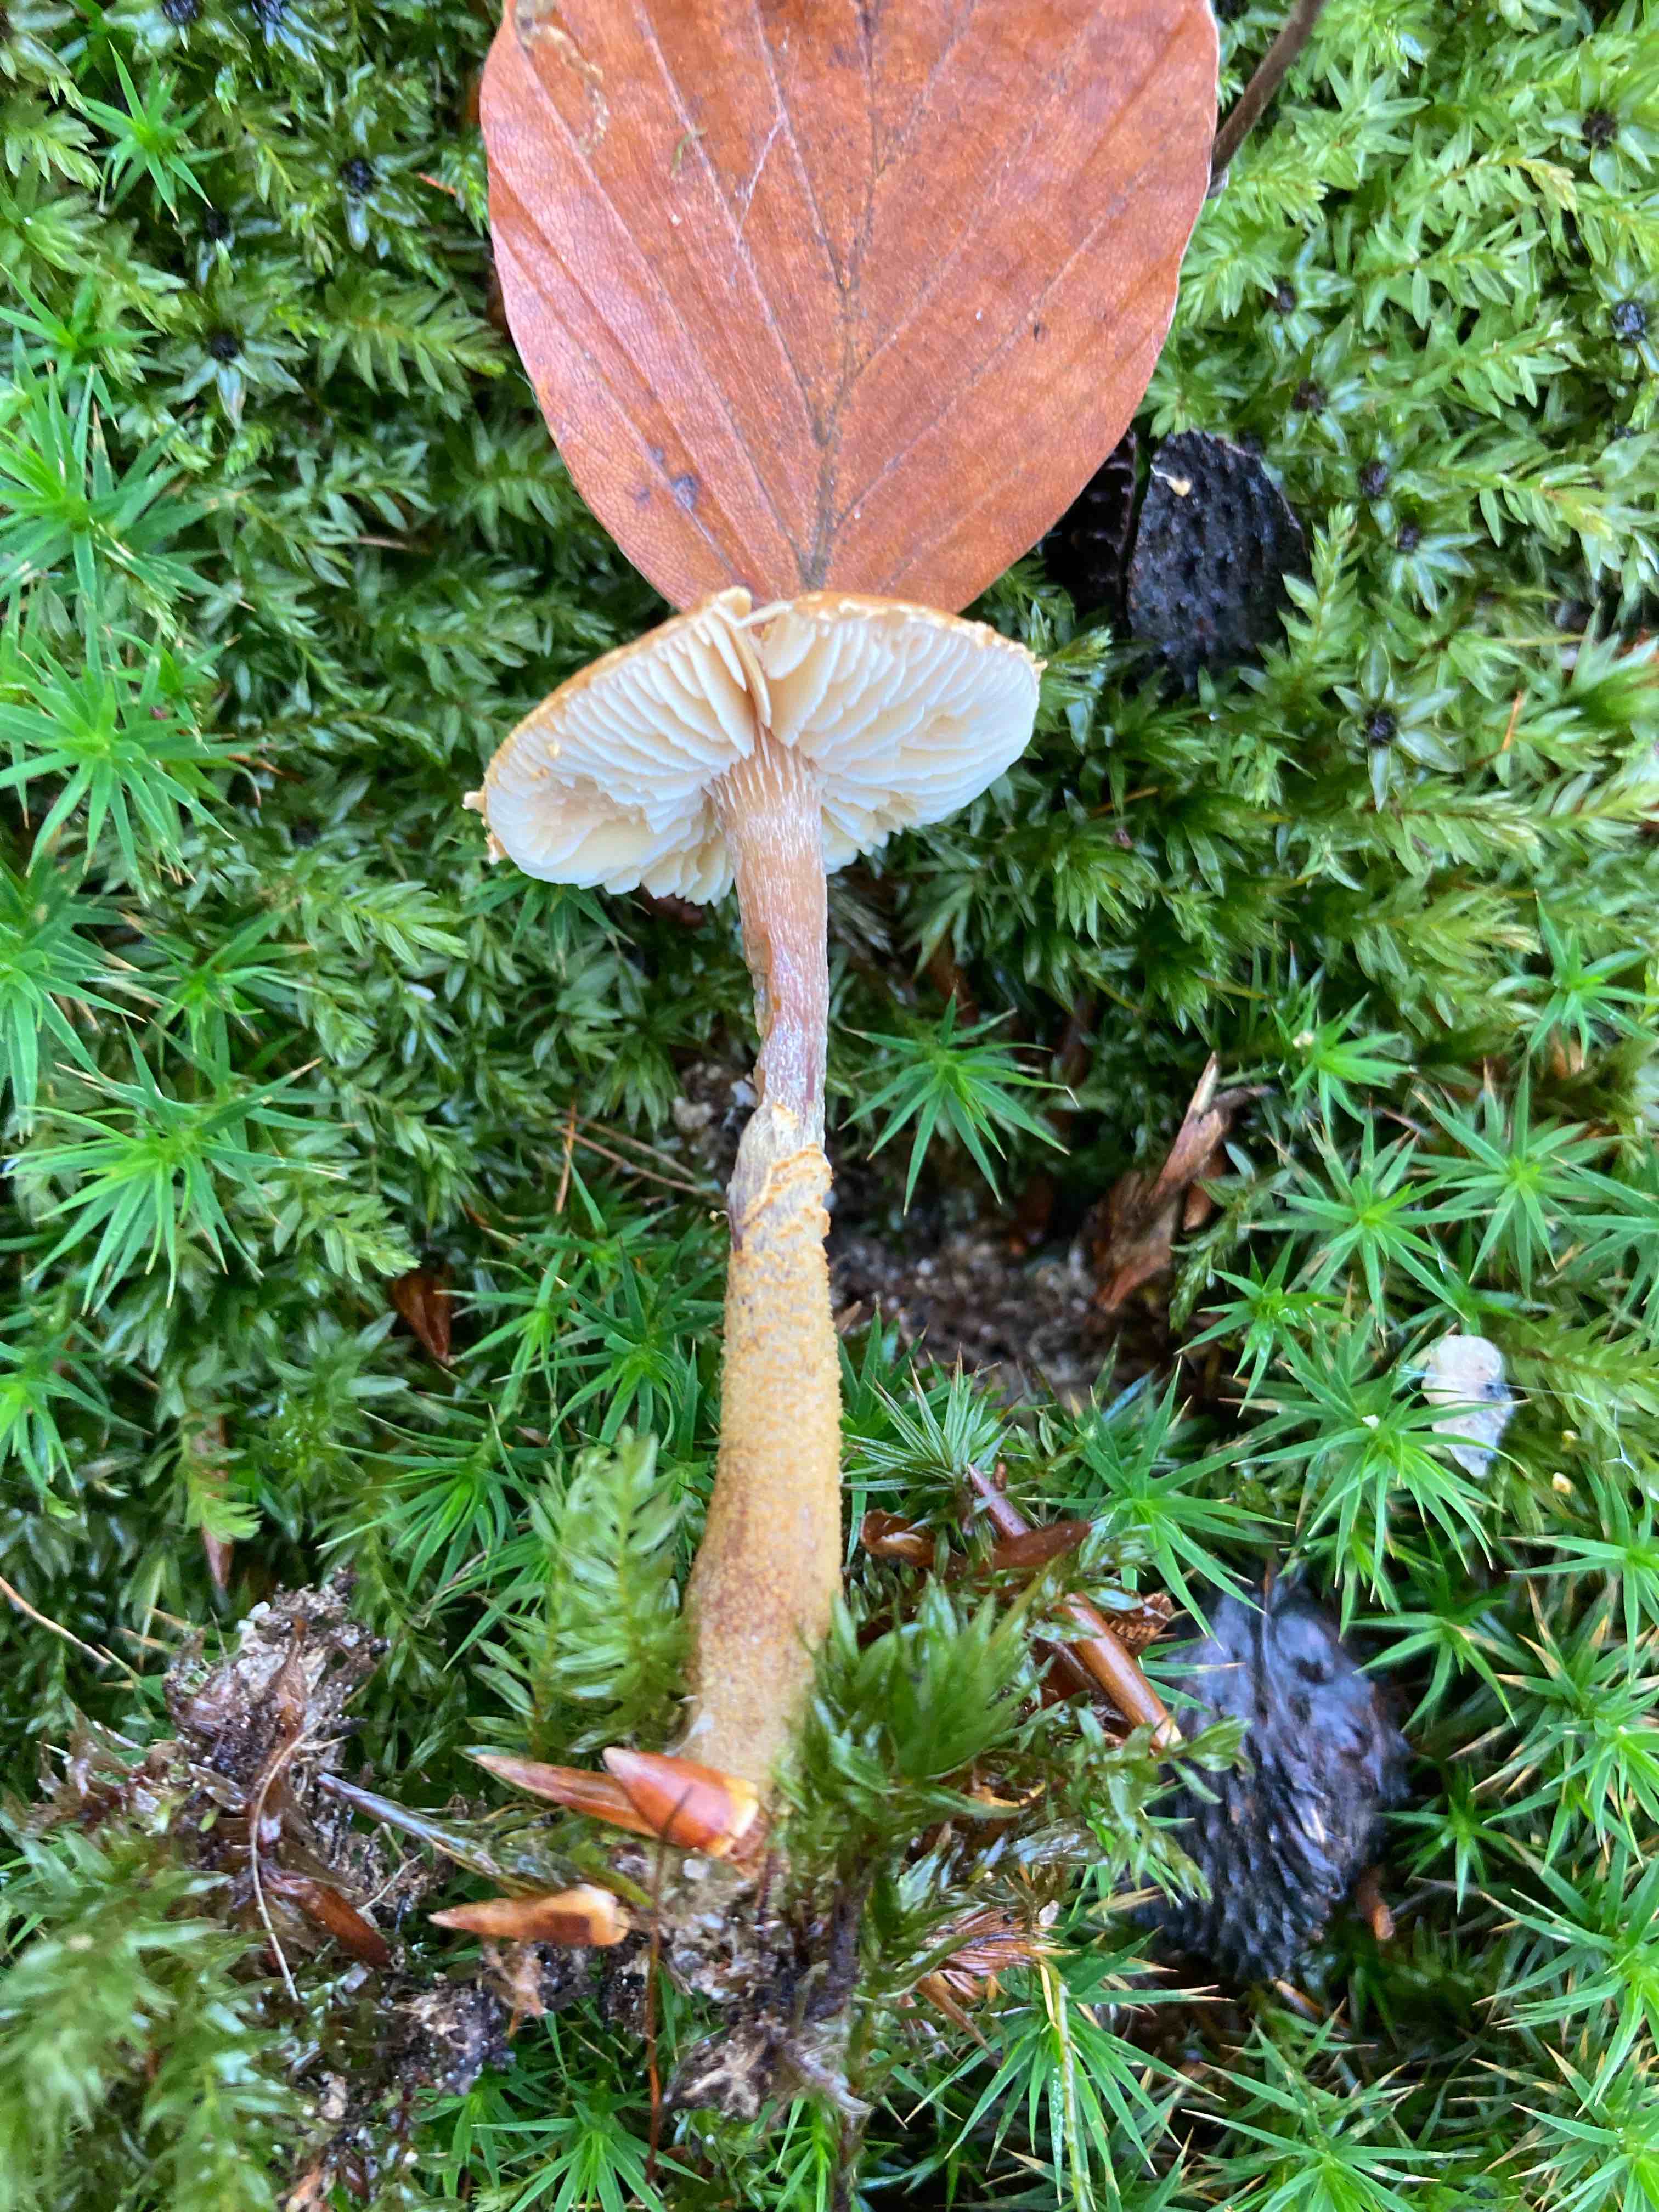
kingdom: Fungi
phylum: Basidiomycota
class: Agaricomycetes
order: Agaricales
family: Tricholomataceae
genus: Cystoderma
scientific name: Cystoderma amianthinum
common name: okkergul grynhat
